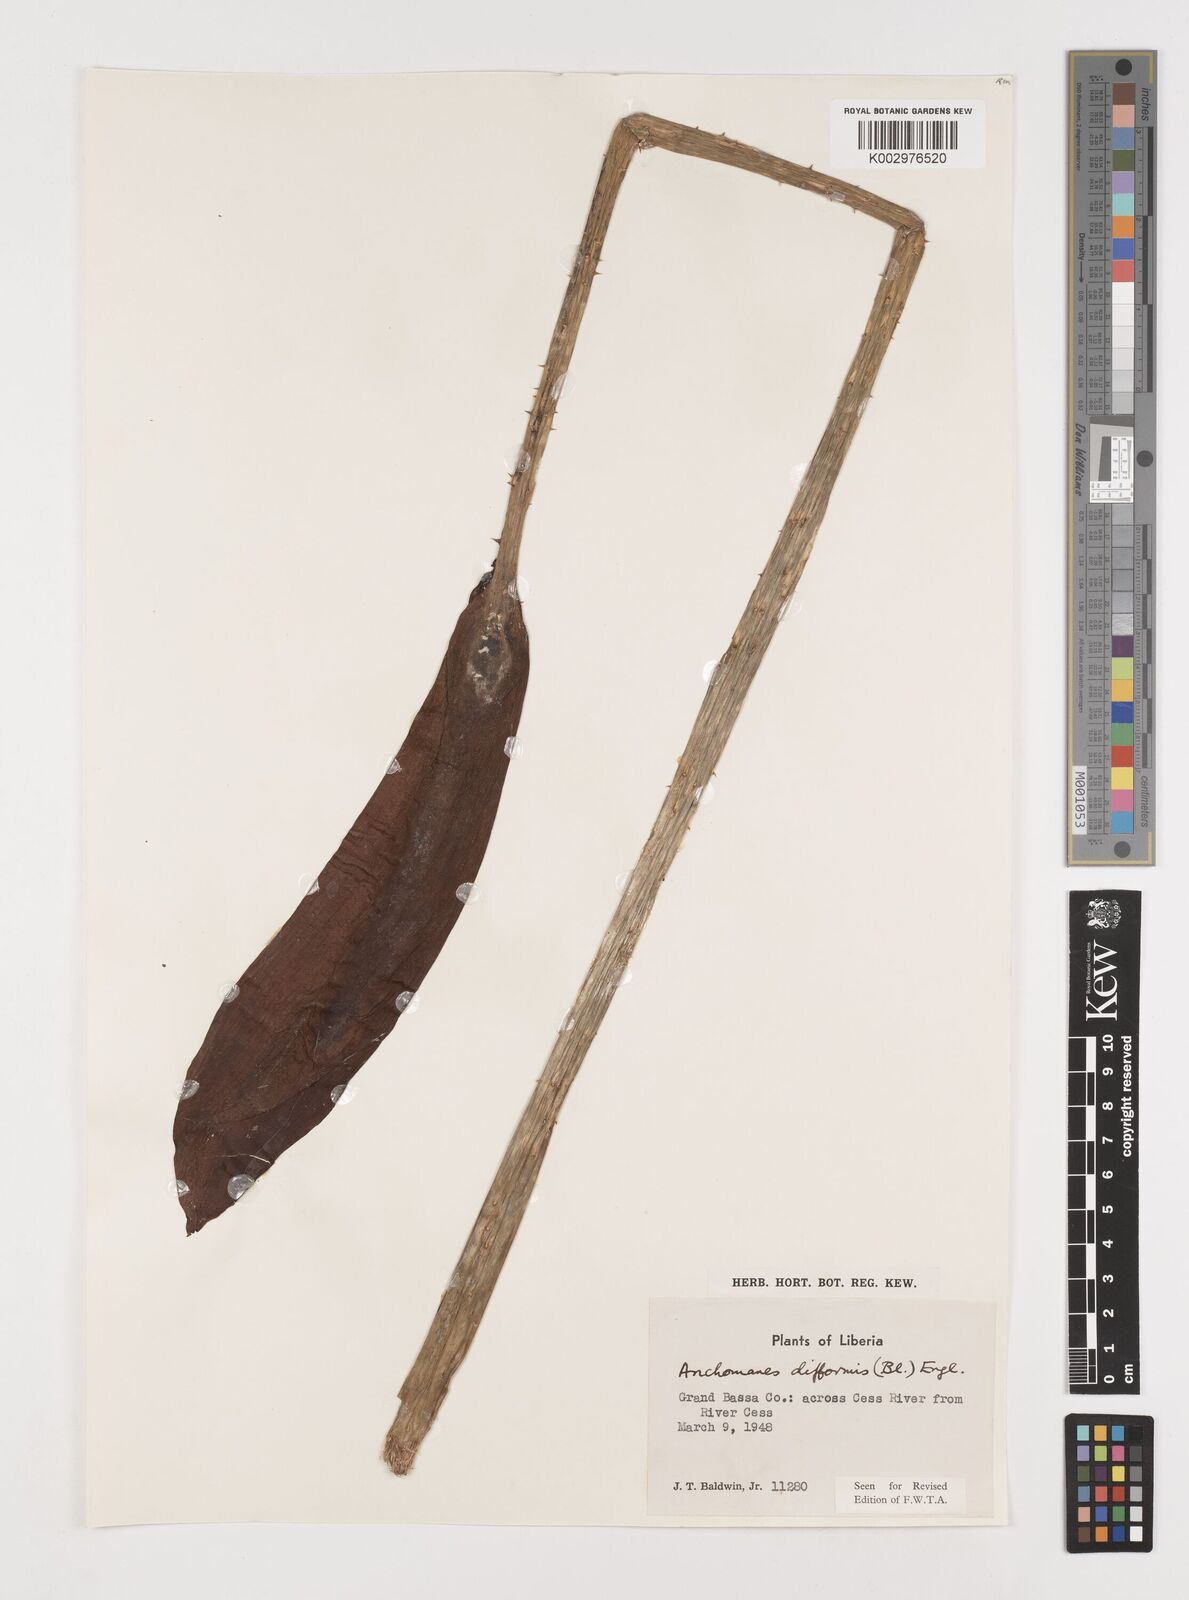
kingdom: Plantae
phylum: Tracheophyta
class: Liliopsida
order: Alismatales
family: Araceae
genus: Anchomanes
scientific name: Anchomanes difformis
